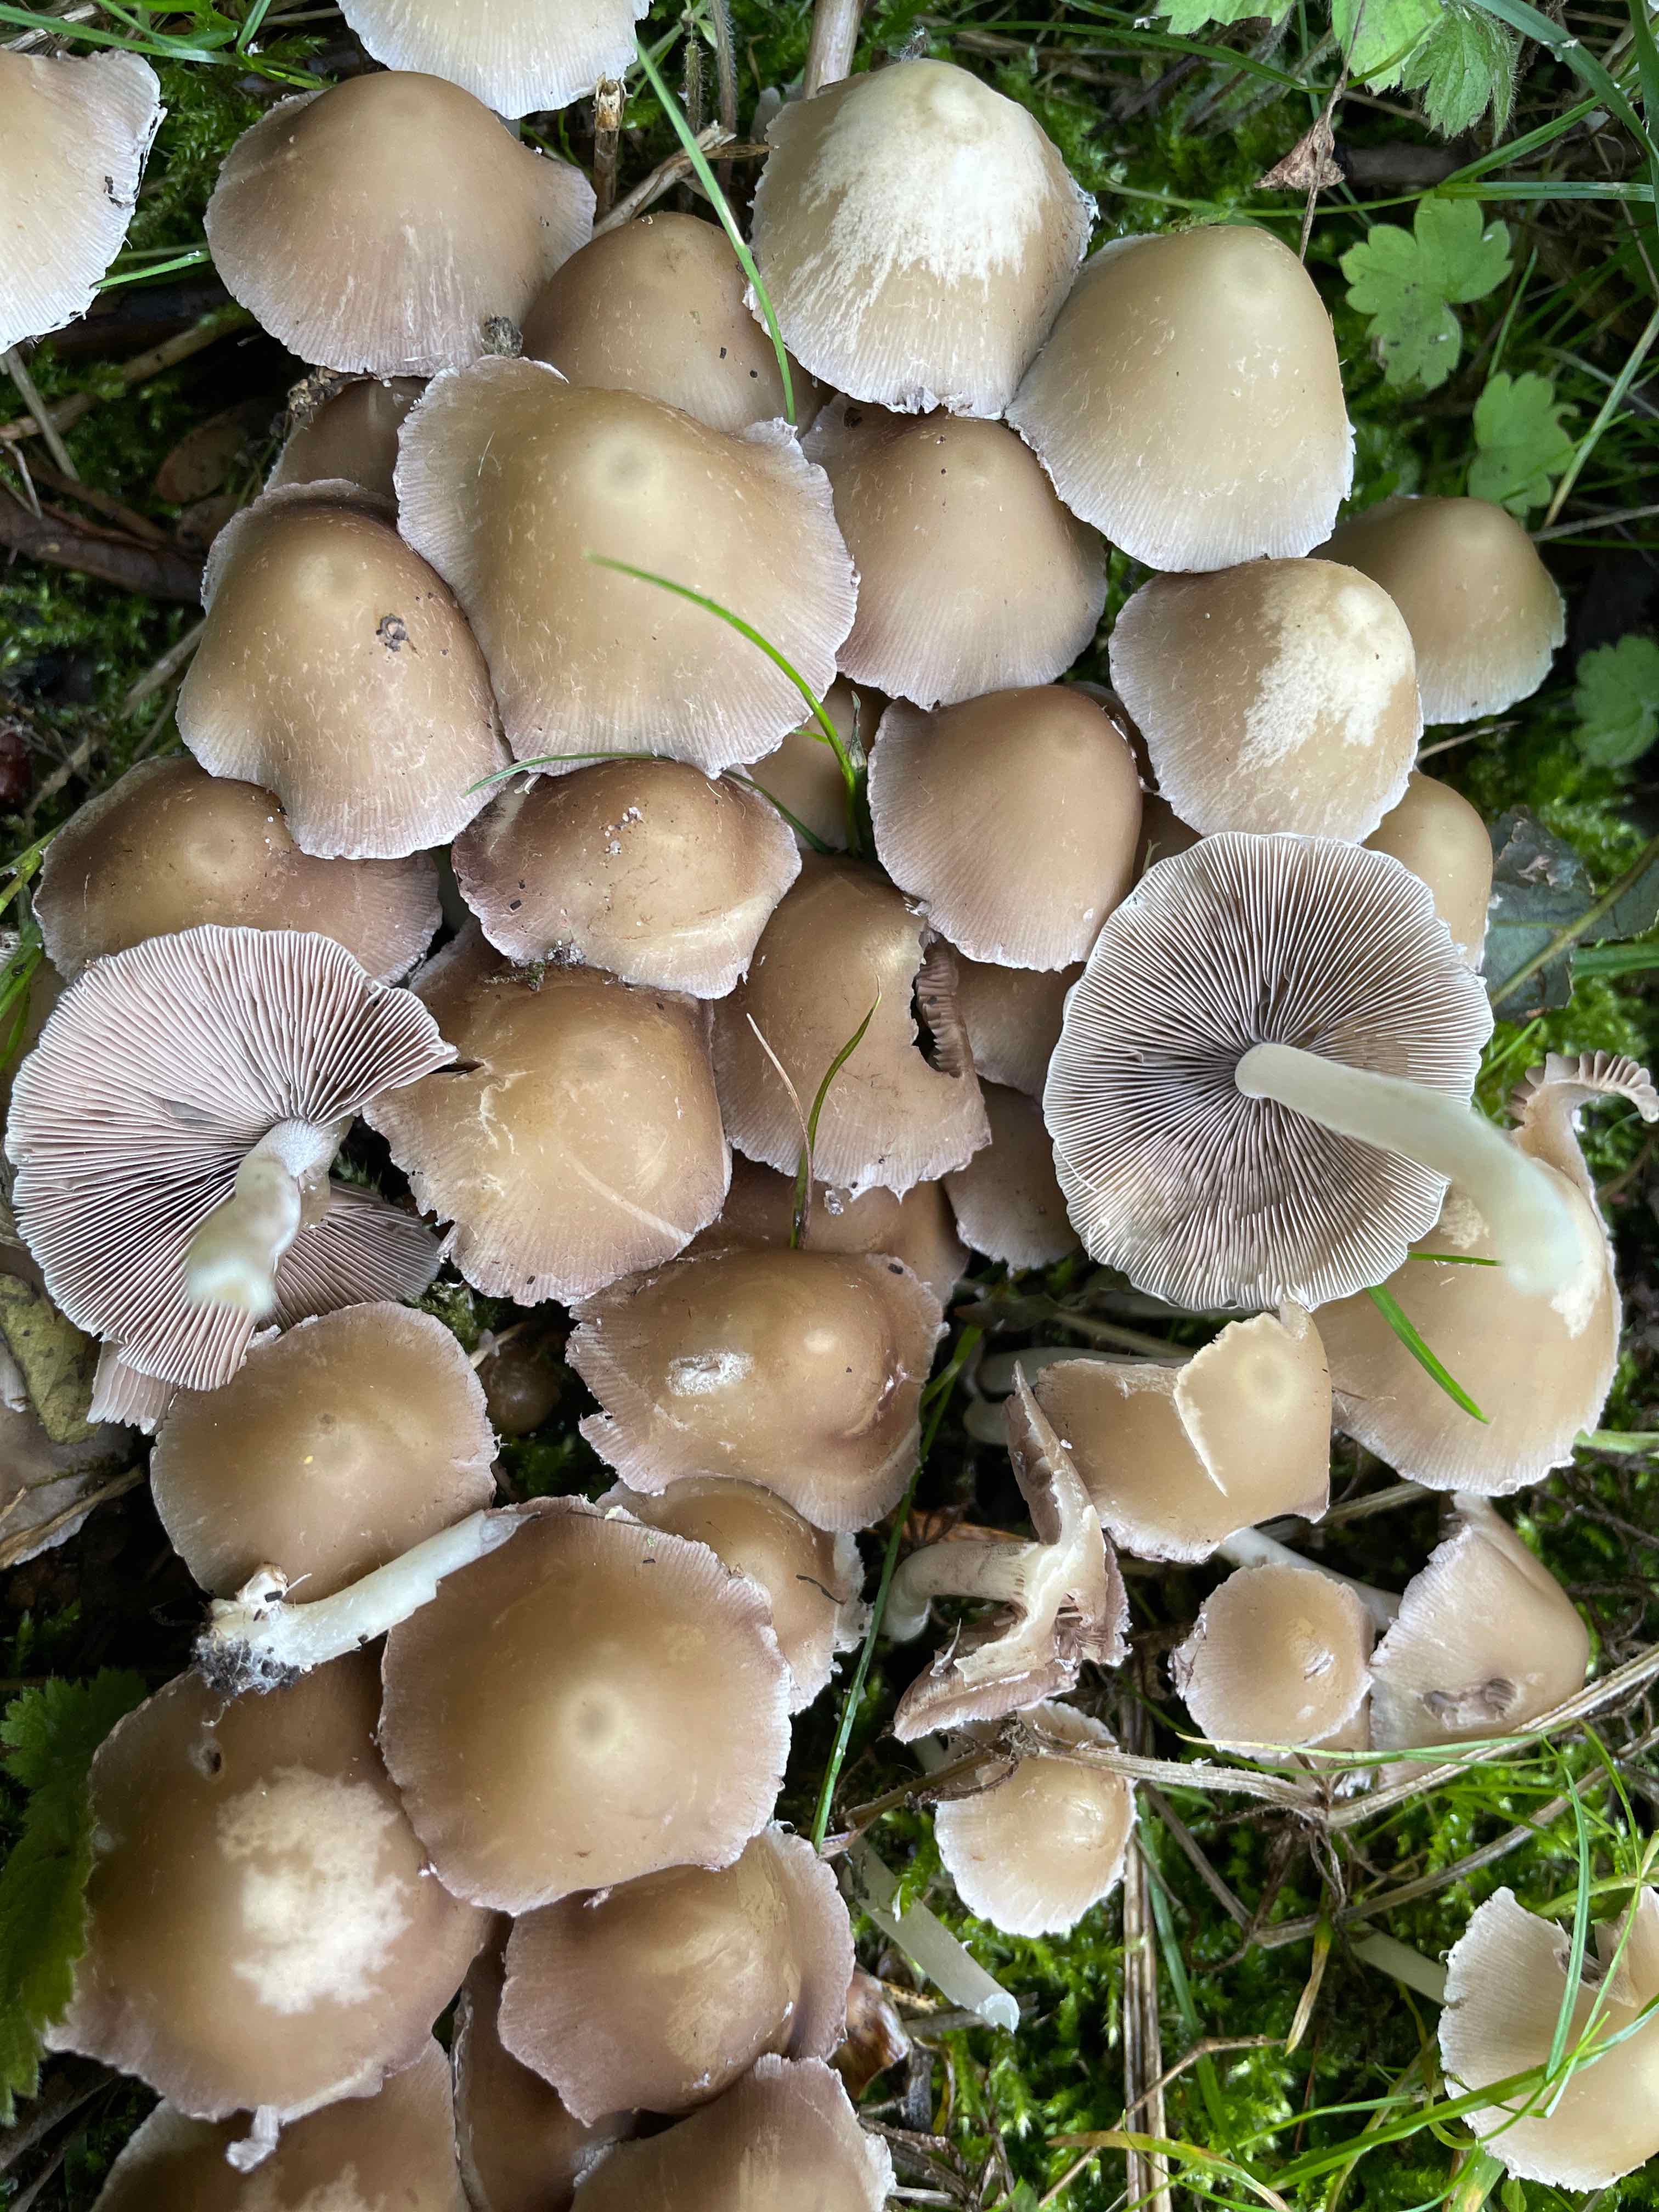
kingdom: Fungi
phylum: Basidiomycota
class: Agaricomycetes
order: Agaricales
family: Psathyrellaceae
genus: Candolleomyces
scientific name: Candolleomyces candolleanus
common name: Candolles mørkhat
